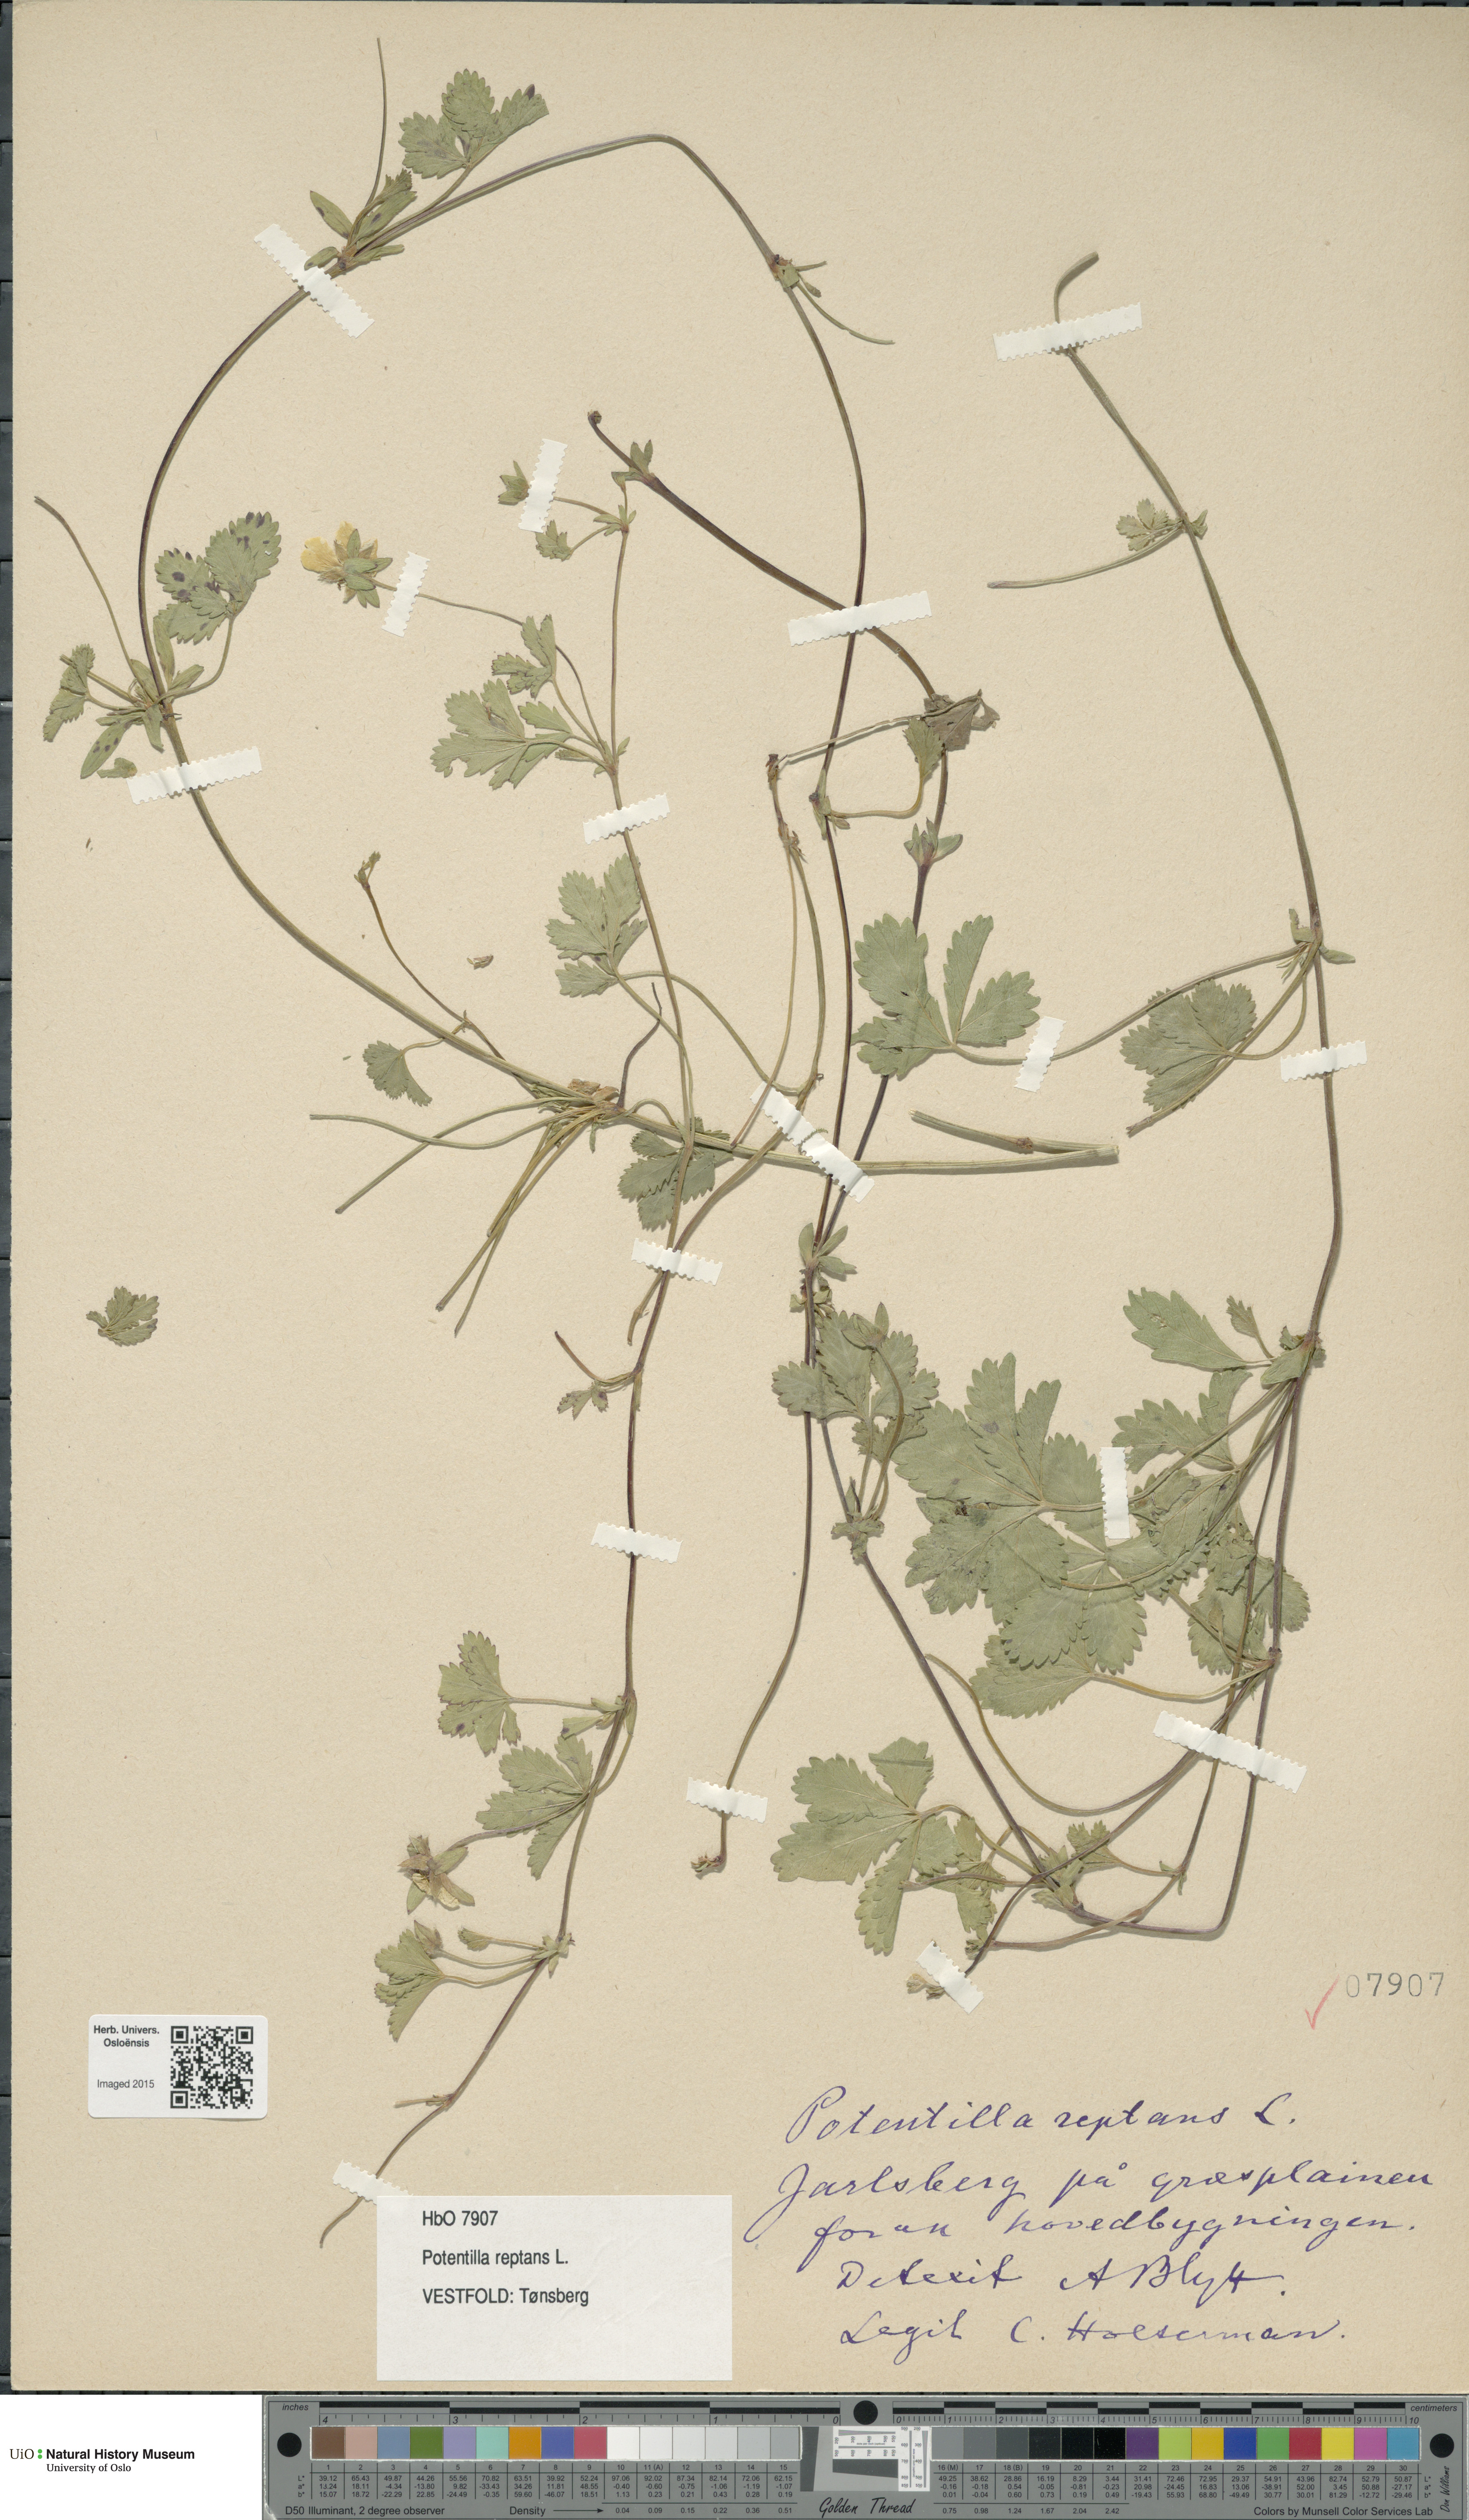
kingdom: Plantae
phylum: Tracheophyta
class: Magnoliopsida
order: Rosales
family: Rosaceae
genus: Potentilla
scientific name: Potentilla reptans
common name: Creeping cinquefoil
